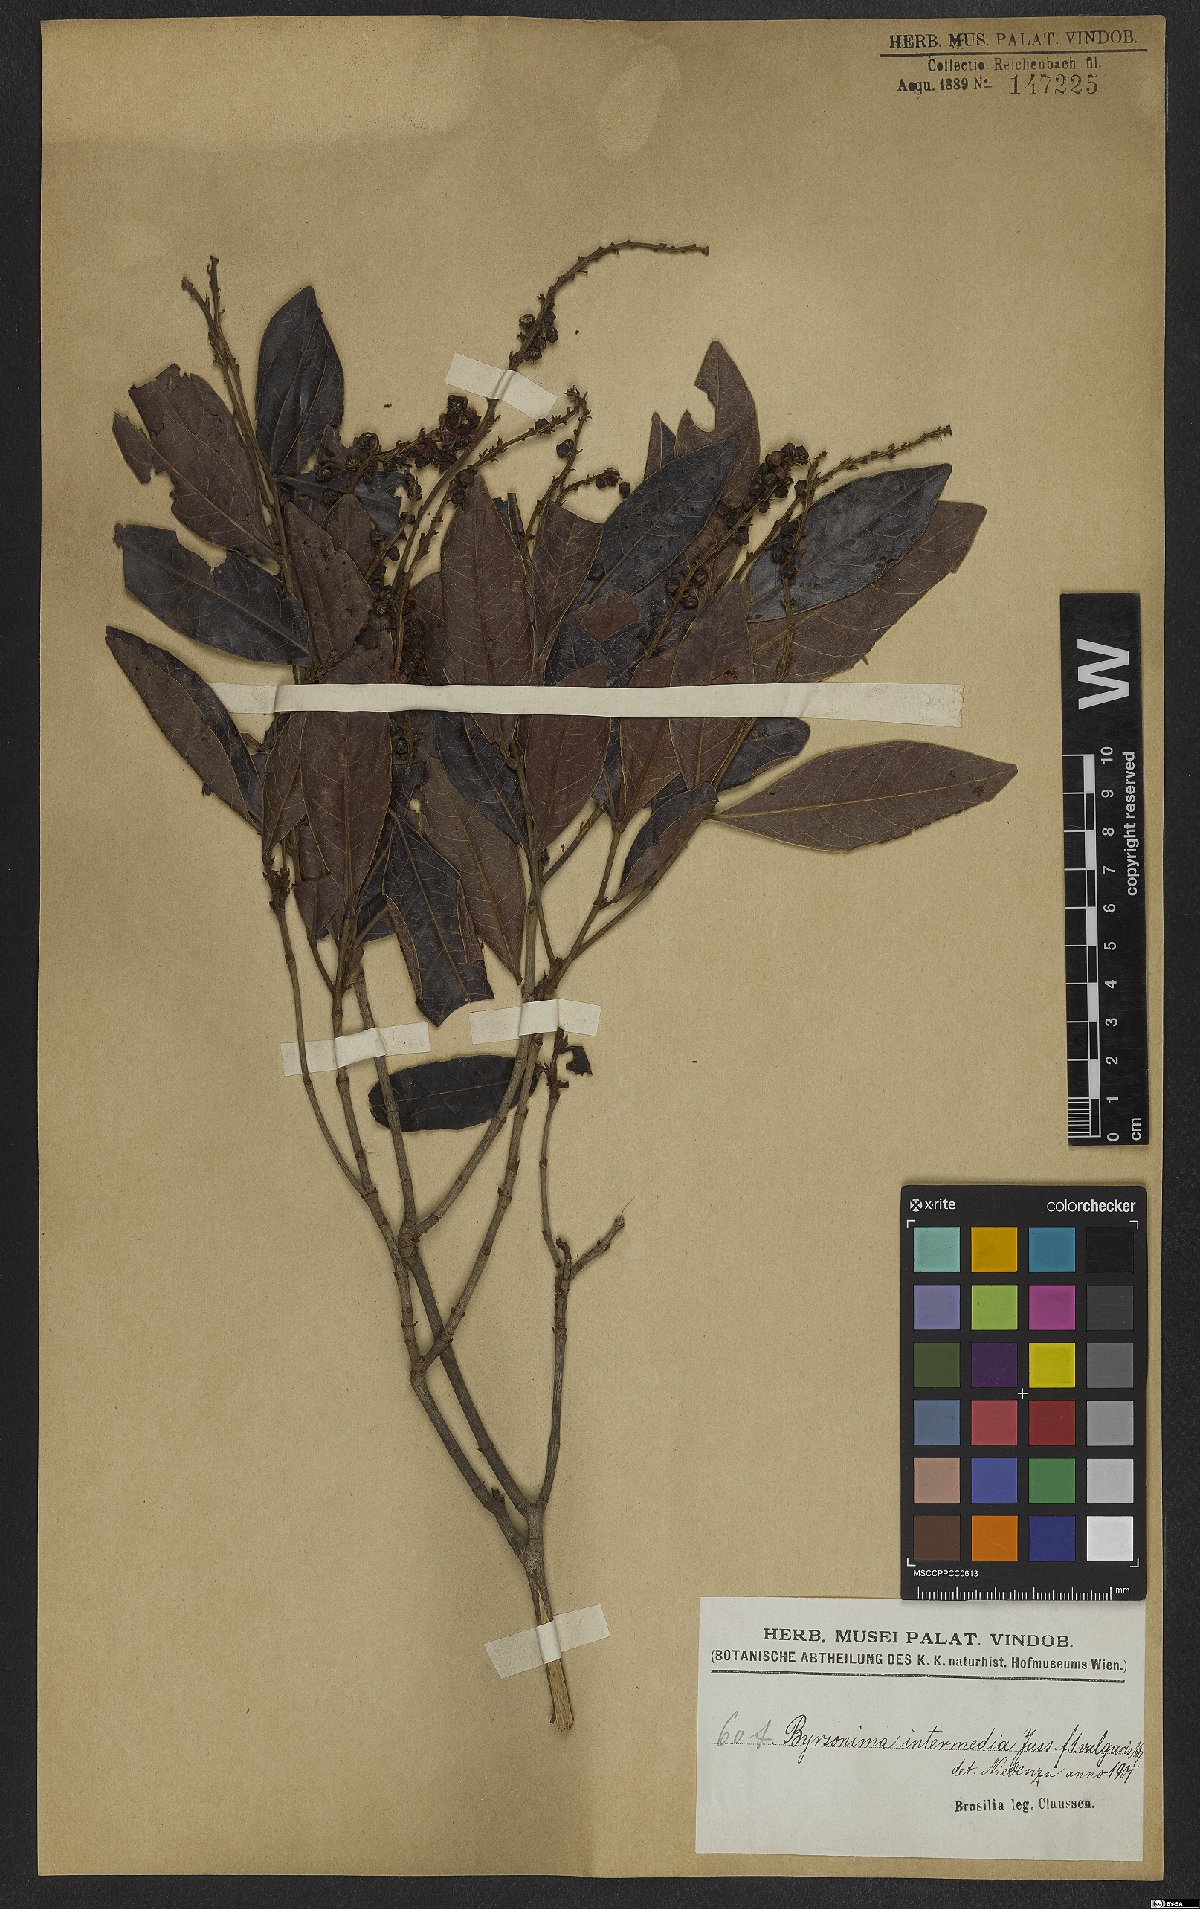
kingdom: Plantae
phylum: Tracheophyta
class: Magnoliopsida
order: Malpighiales
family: Malpighiaceae
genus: Byrsonima
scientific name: Byrsonima intermedia
